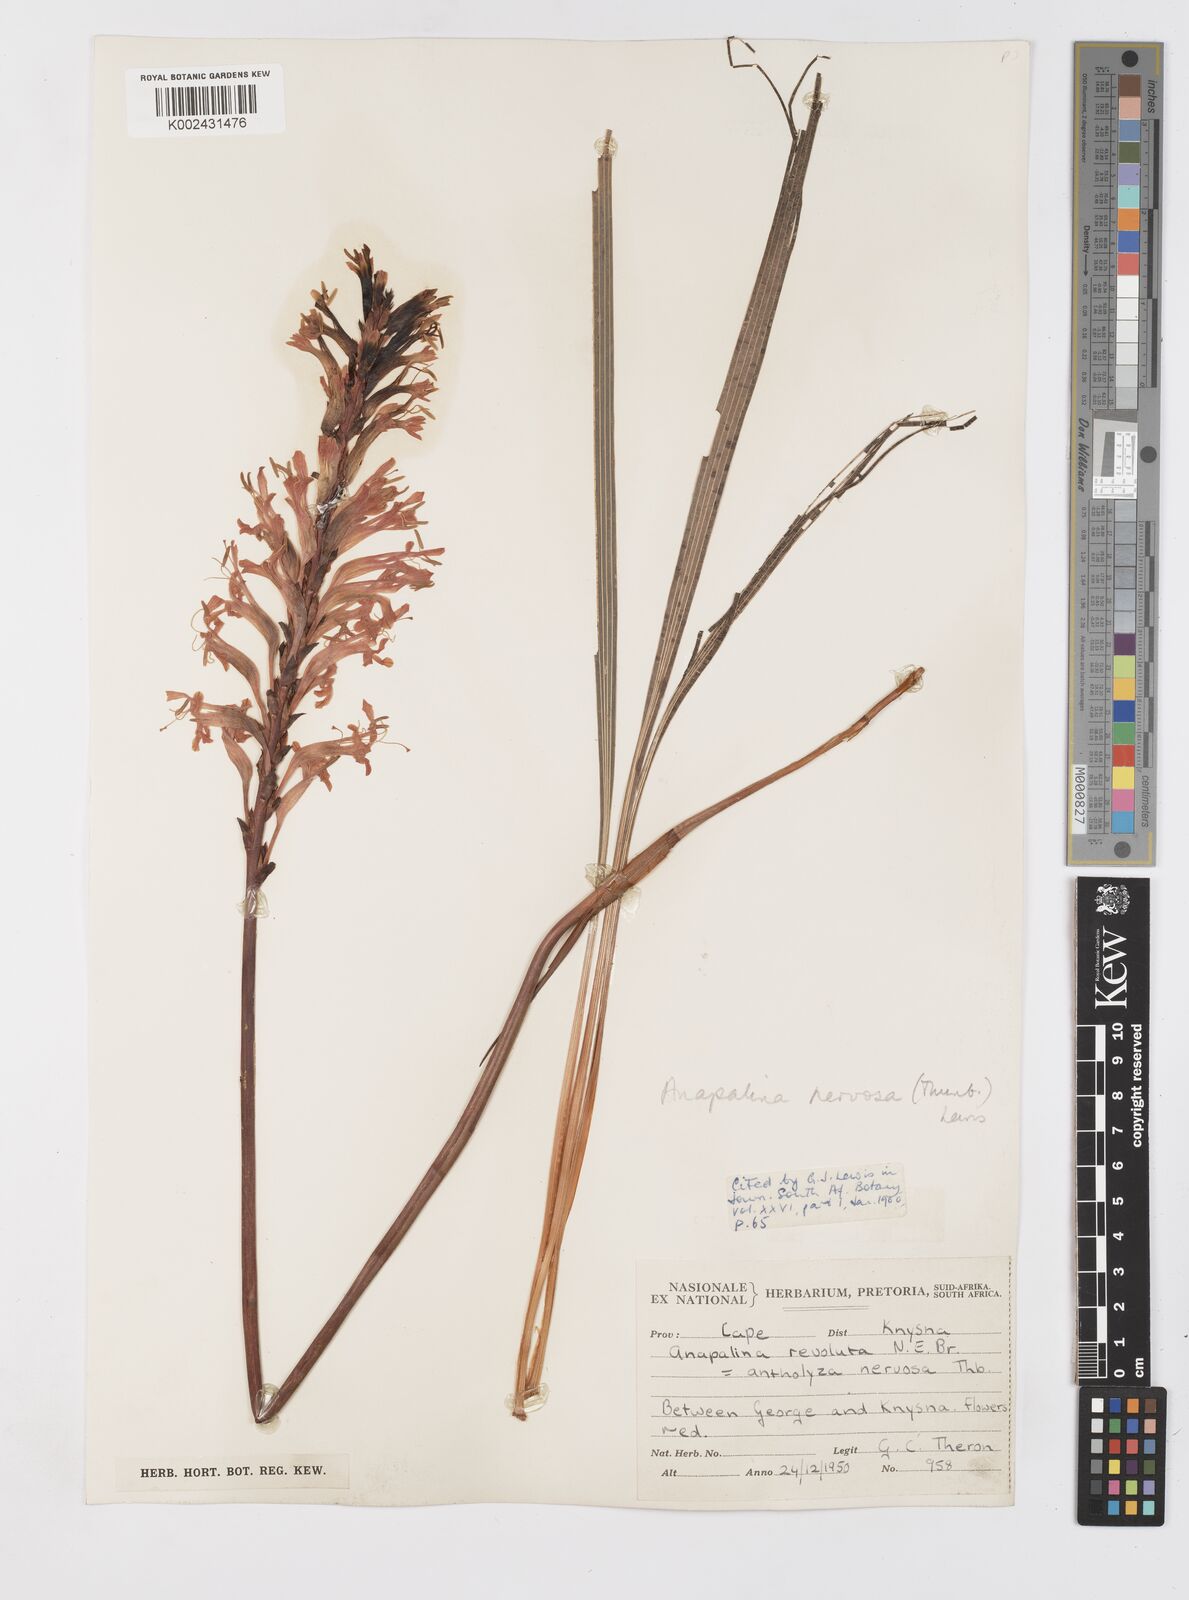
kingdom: Plantae
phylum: Tracheophyta
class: Liliopsida
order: Asparagales
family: Iridaceae
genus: Tritoniopsis
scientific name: Tritoniopsis nervosa
